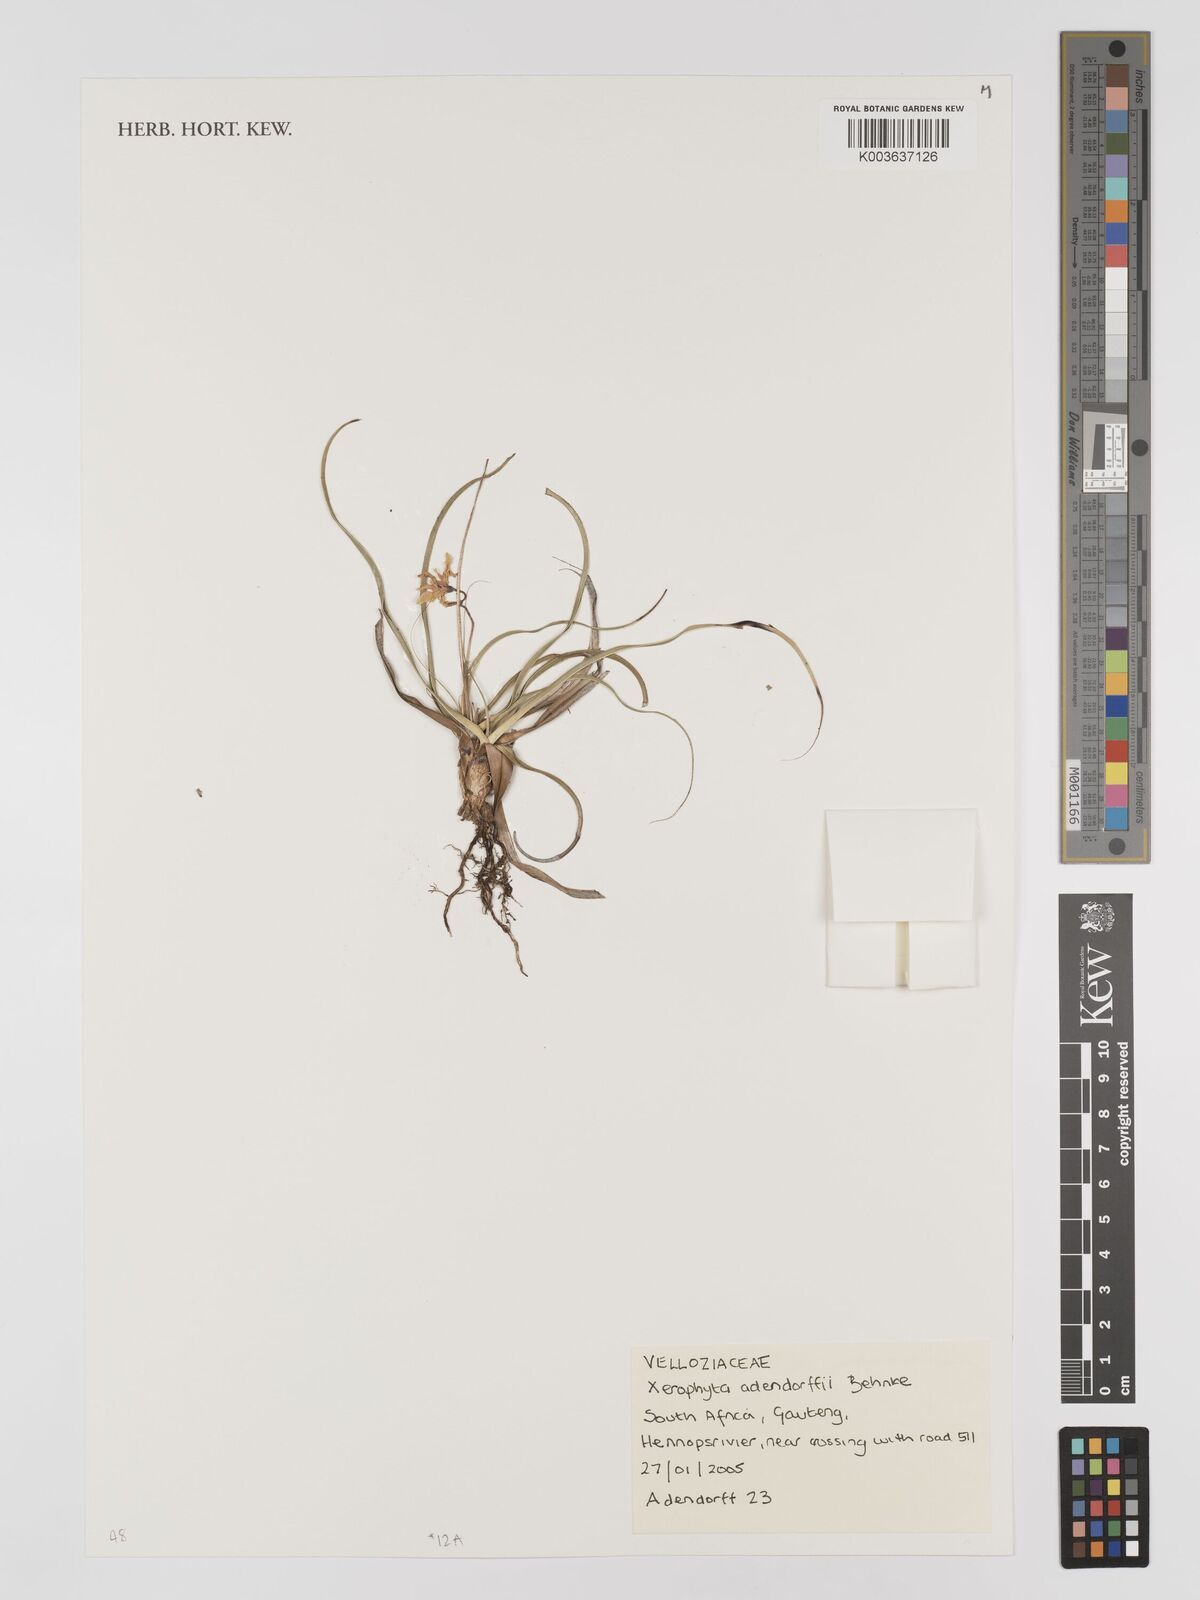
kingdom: Plantae
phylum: Tracheophyta
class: Liliopsida
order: Pandanales
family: Velloziaceae
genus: Xerophyta
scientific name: Xerophyta adendorffii
